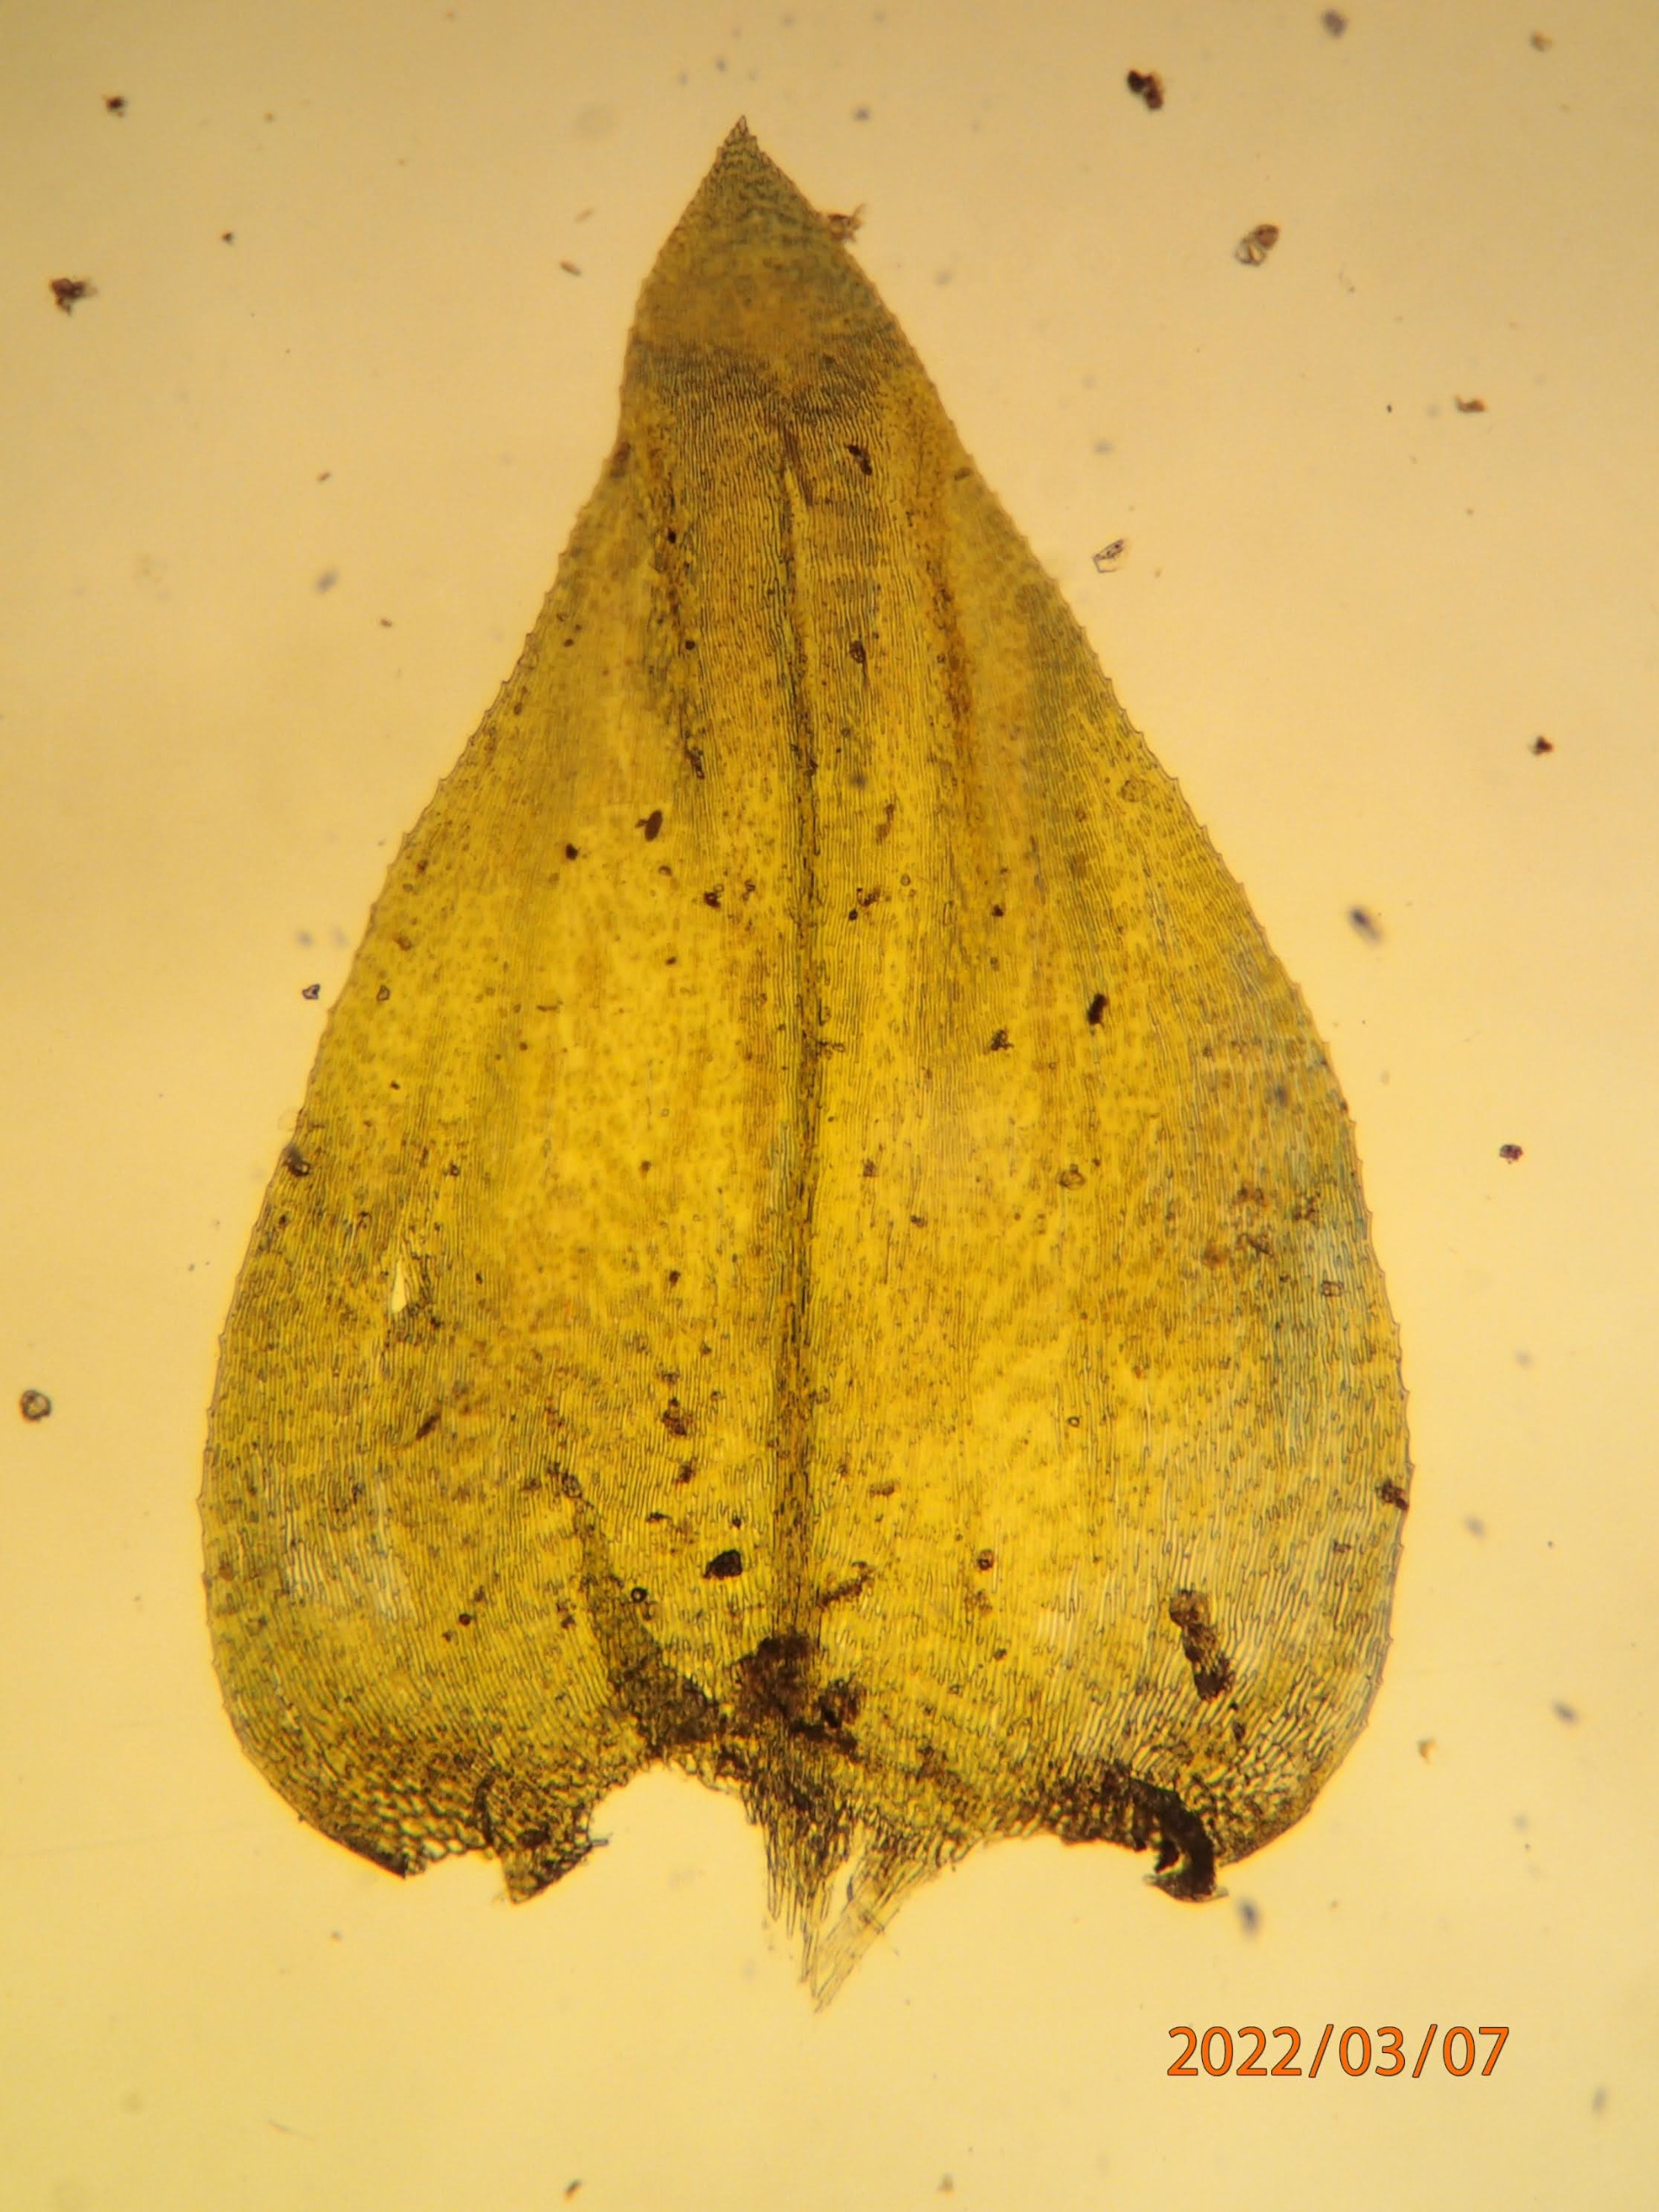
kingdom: Plantae
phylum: Bryophyta
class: Bryopsida
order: Hypnales
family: Brachytheciaceae
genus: Eurhynchium
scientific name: Eurhynchium angustirete
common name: Stor næbmos
